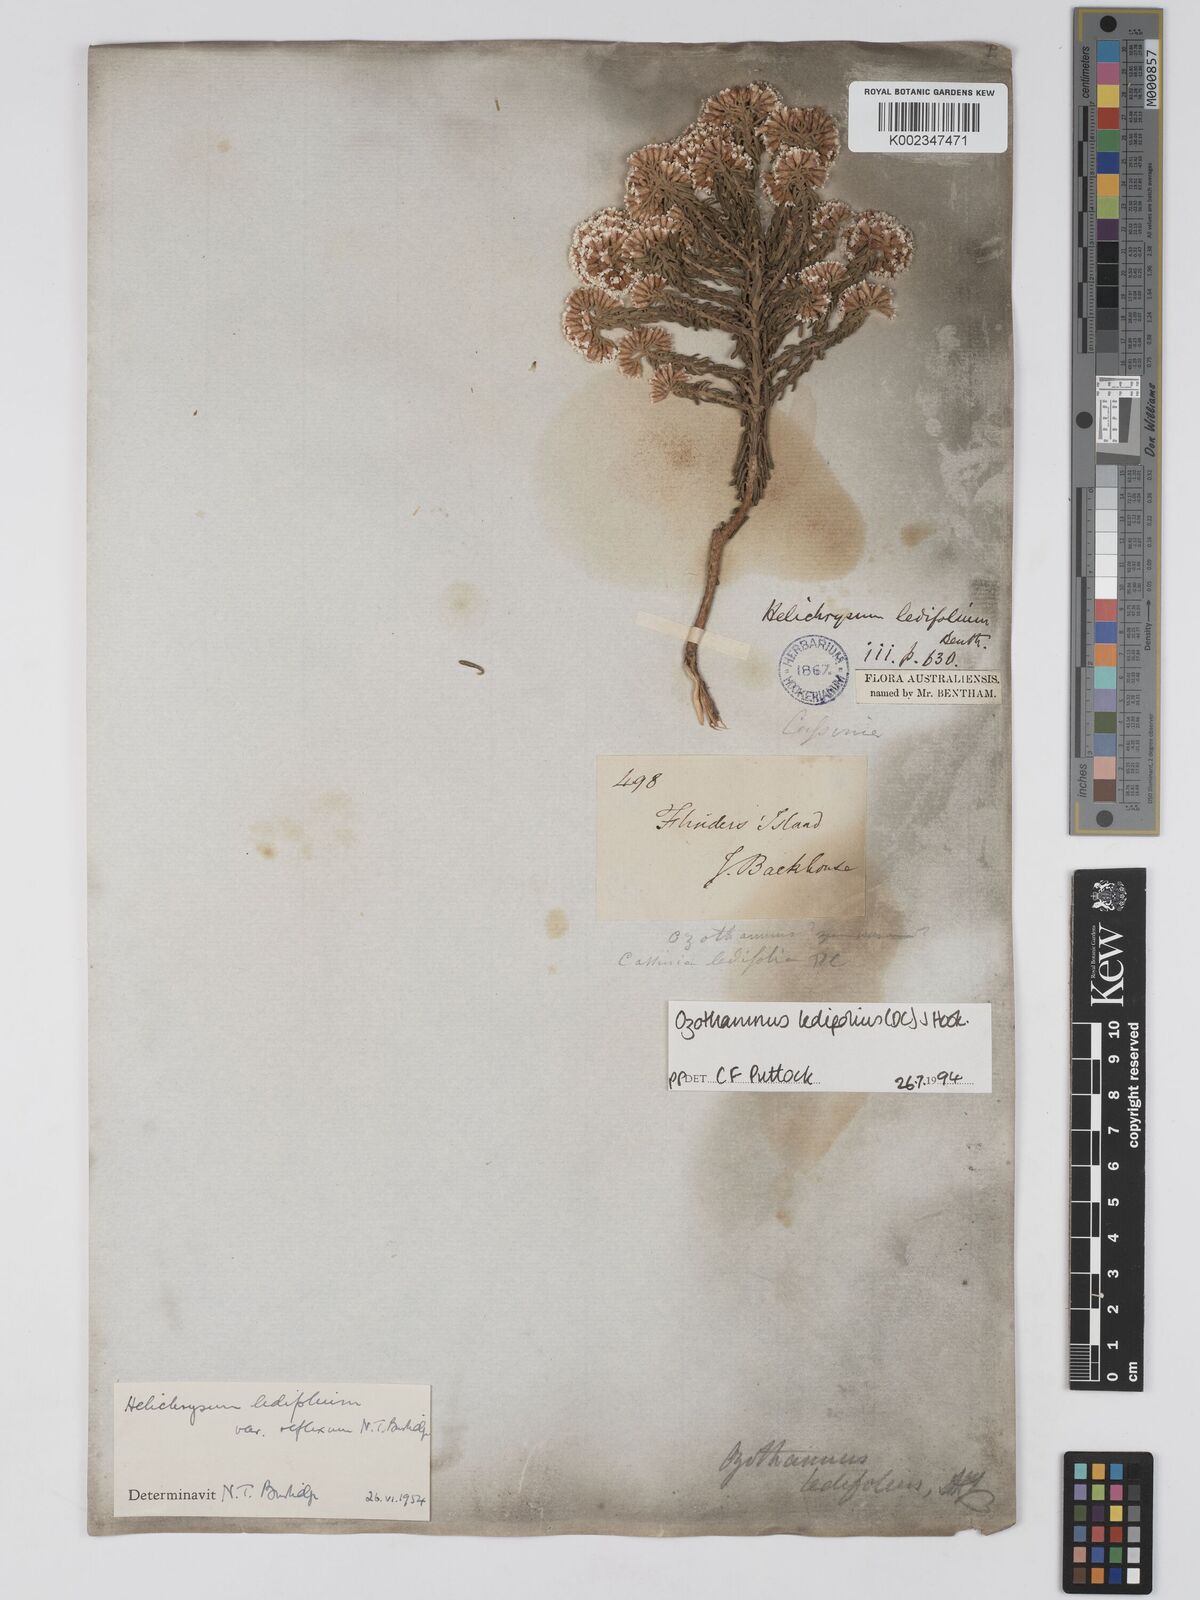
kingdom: Plantae
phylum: Tracheophyta
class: Magnoliopsida
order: Asterales
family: Asteraceae
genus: Ozothamnus
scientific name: Ozothamnus ledifolius
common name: Kerosene-weed
